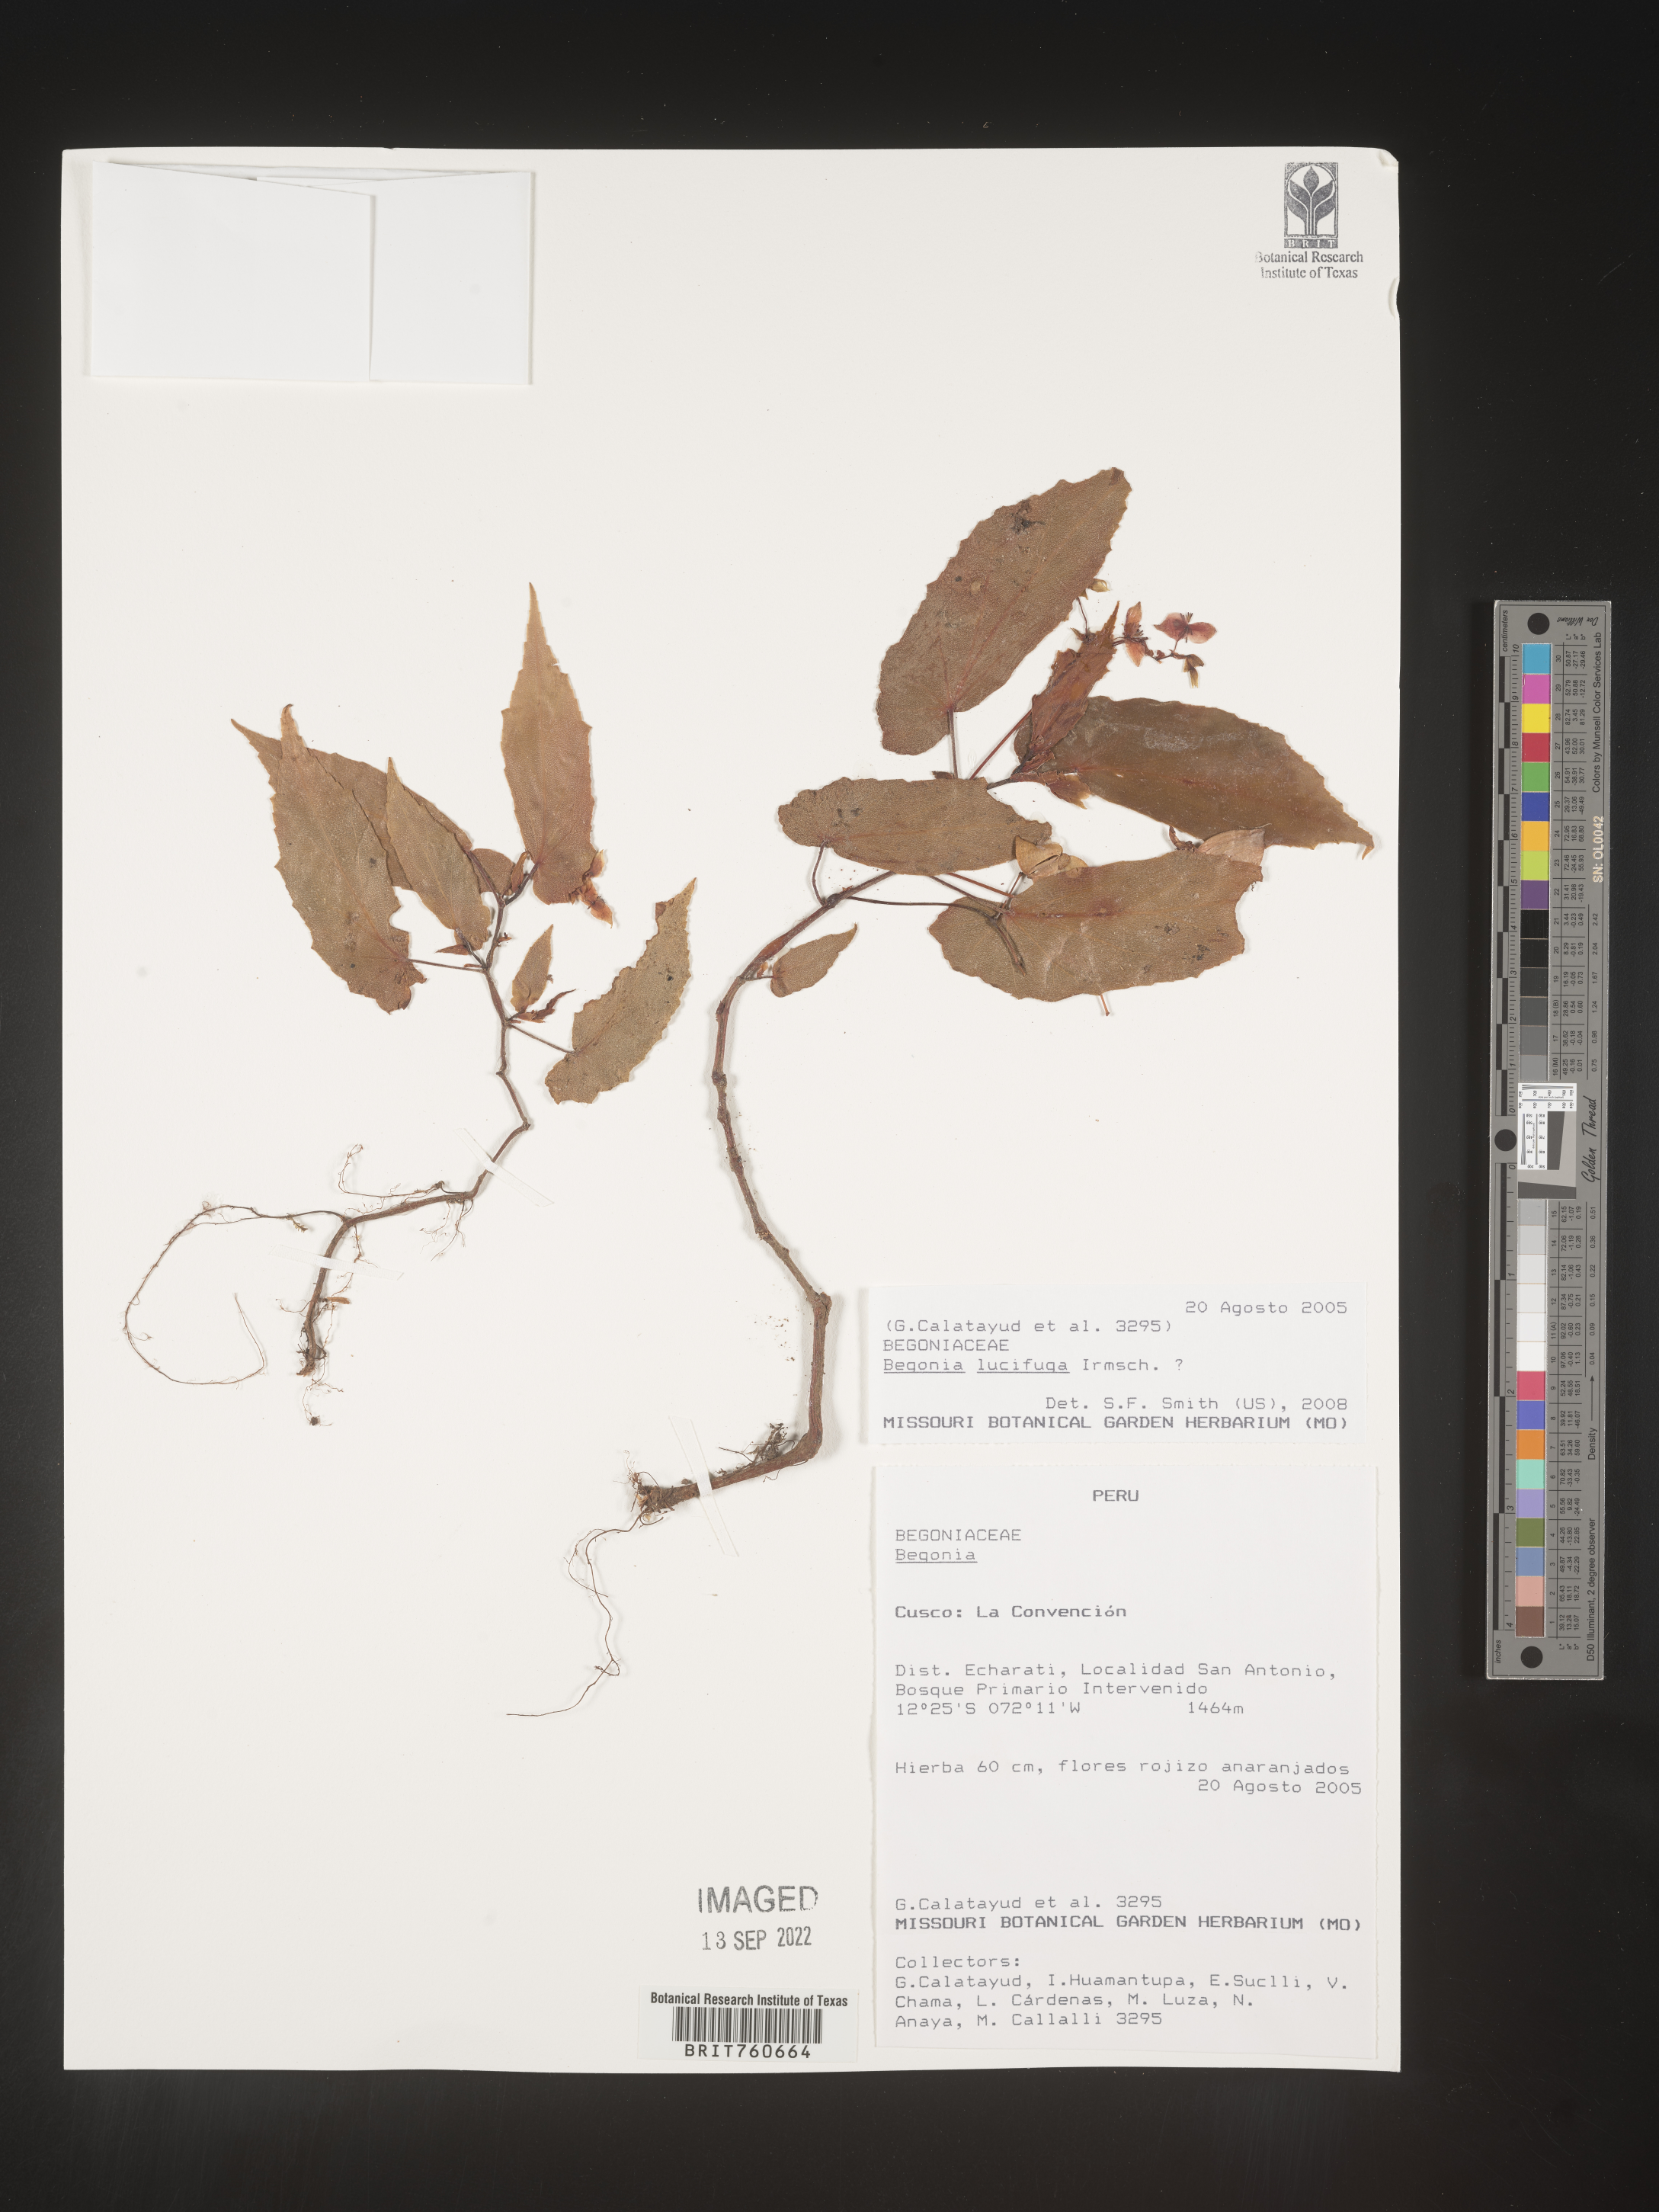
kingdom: Plantae
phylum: Tracheophyta
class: Magnoliopsida
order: Cucurbitales
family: Begoniaceae
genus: Begonia
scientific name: Begonia
